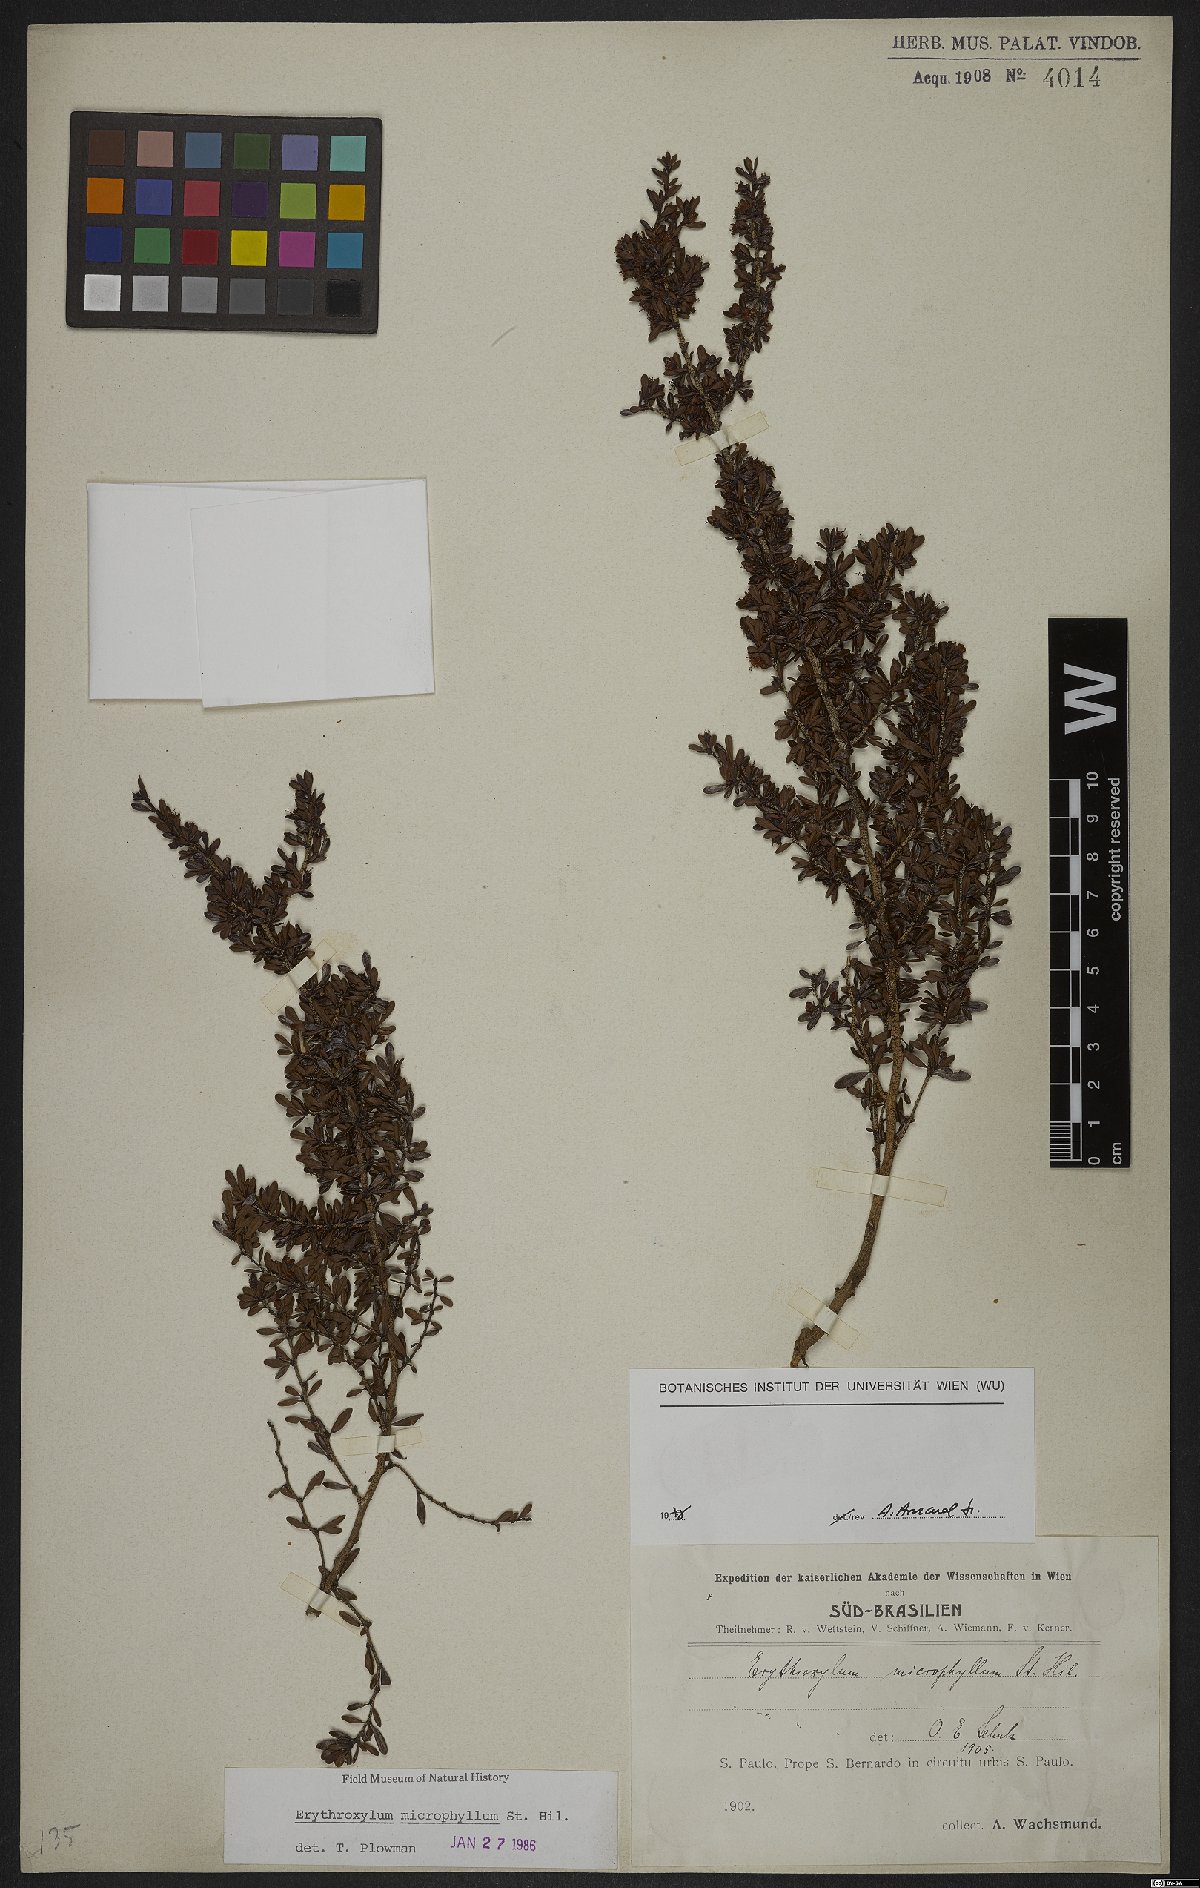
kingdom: Plantae
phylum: Tracheophyta
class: Magnoliopsida
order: Malpighiales
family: Erythroxylaceae
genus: Erythroxylum
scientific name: Erythroxylum microphyllum
